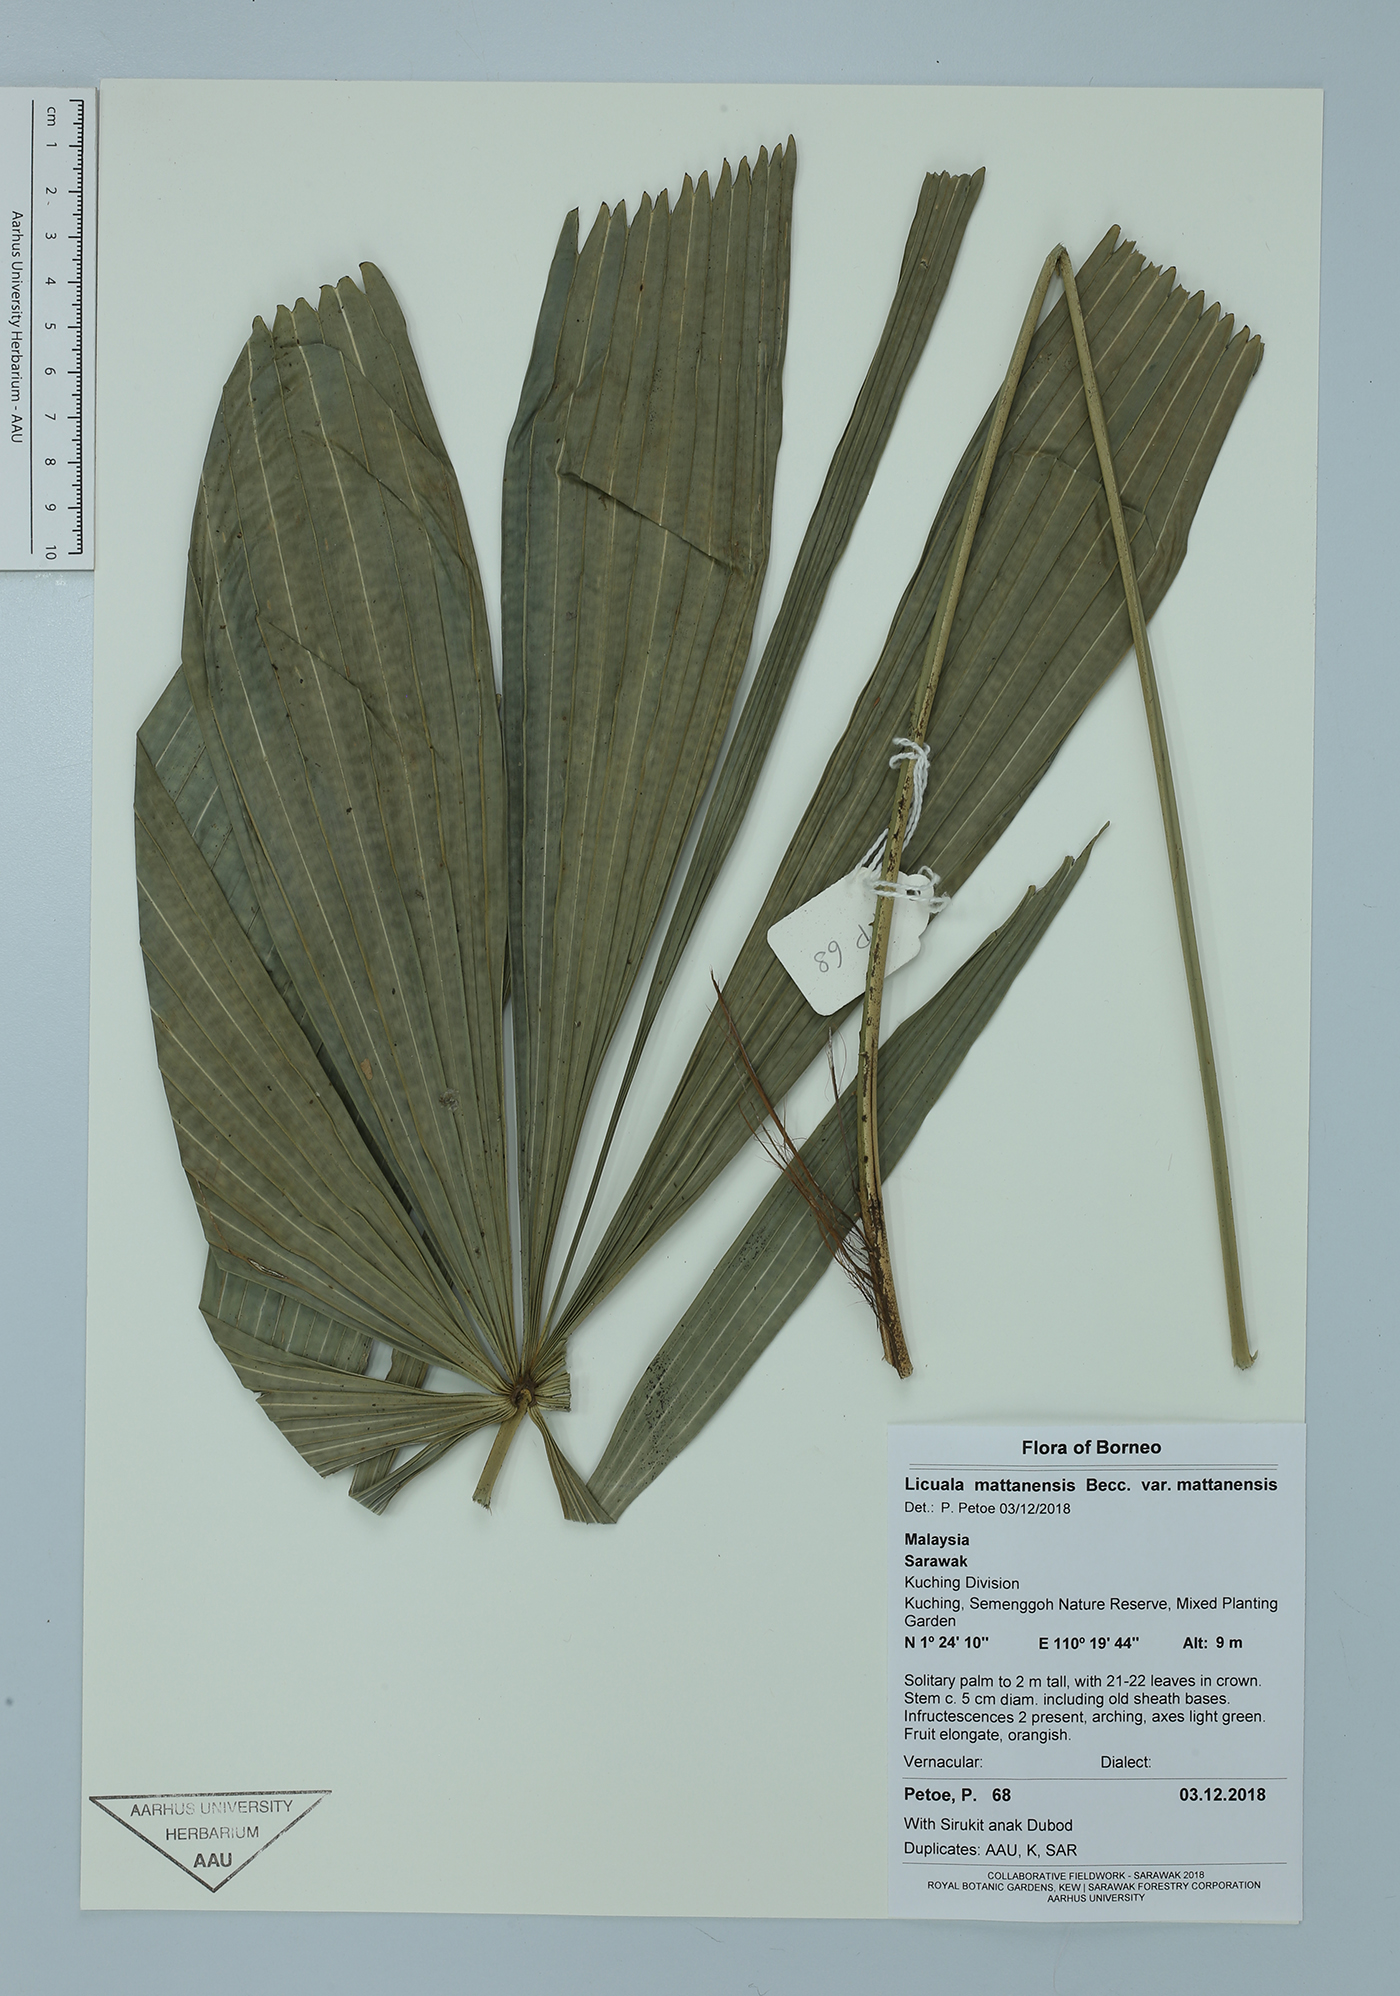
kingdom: Plantae
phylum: Tracheophyta
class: Liliopsida
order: Arecales
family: Arecaceae
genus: Licuala
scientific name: Licuala mattanensis
